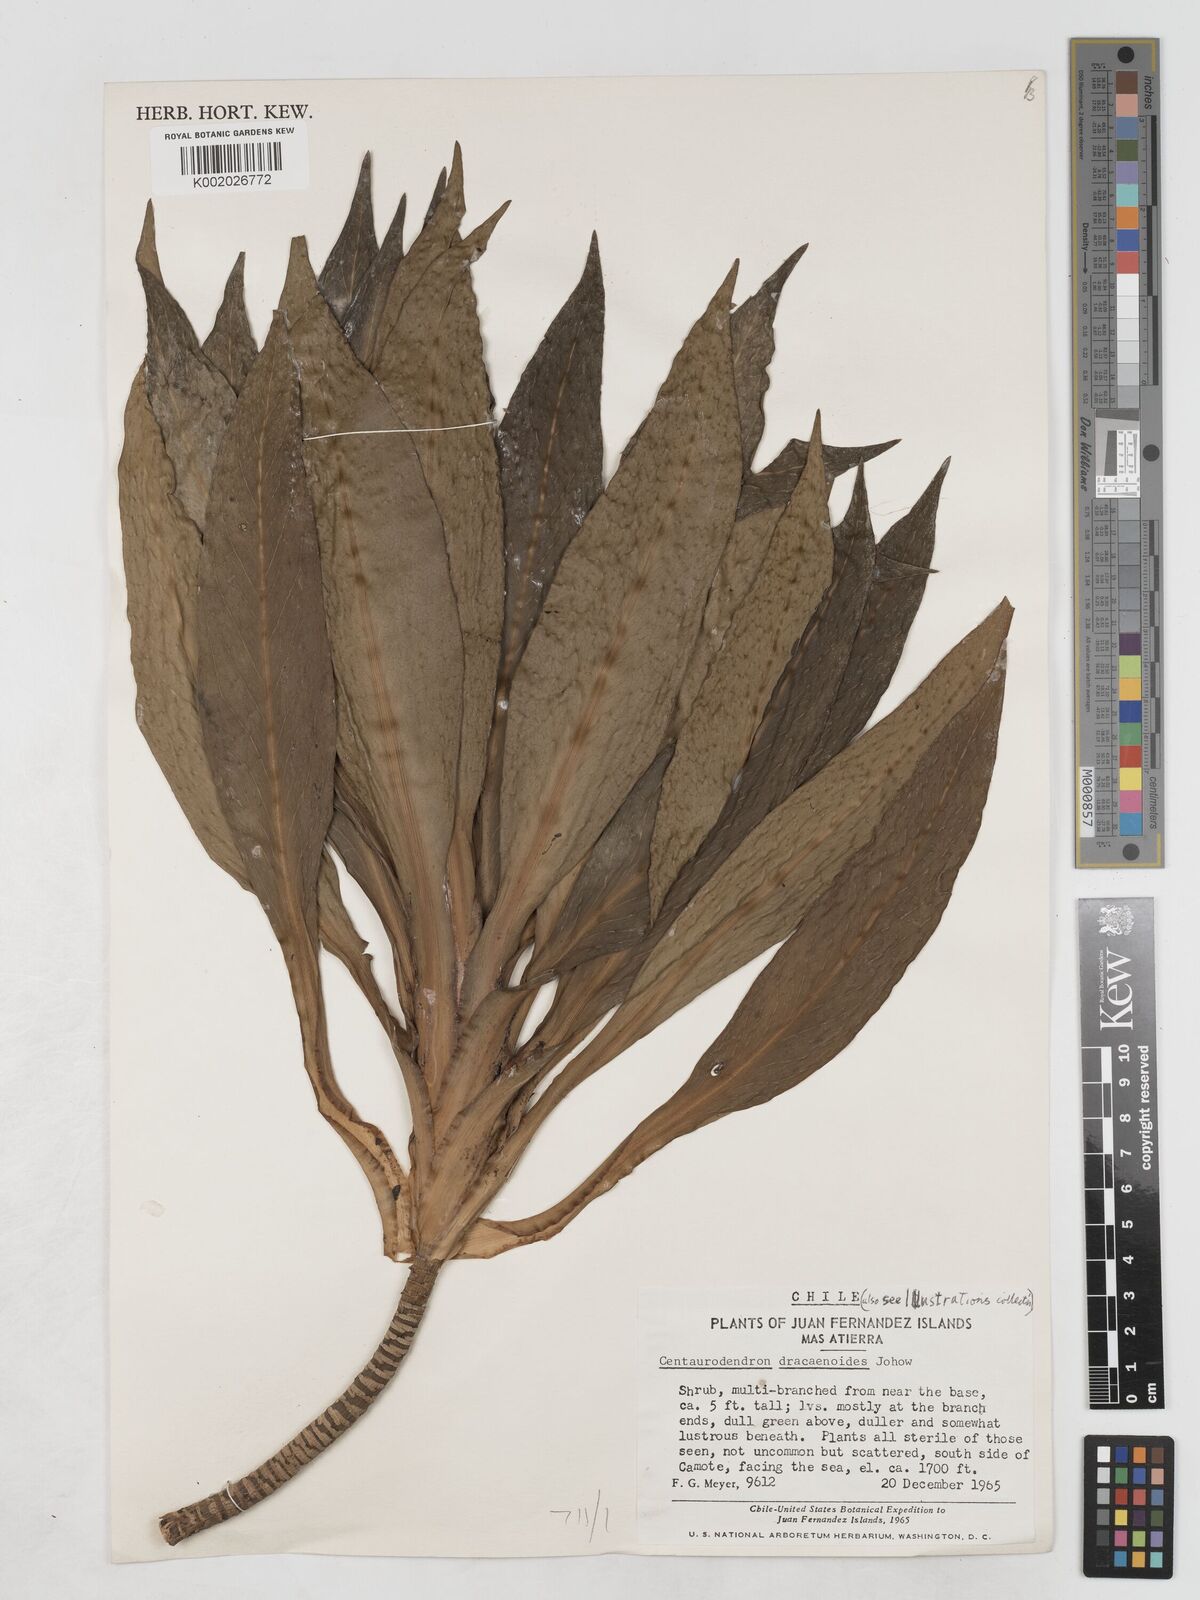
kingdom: Plantae
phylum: Tracheophyta
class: Magnoliopsida
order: Asterales
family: Asteraceae
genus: Plectocephalus
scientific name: Plectocephalus dracaenoides
